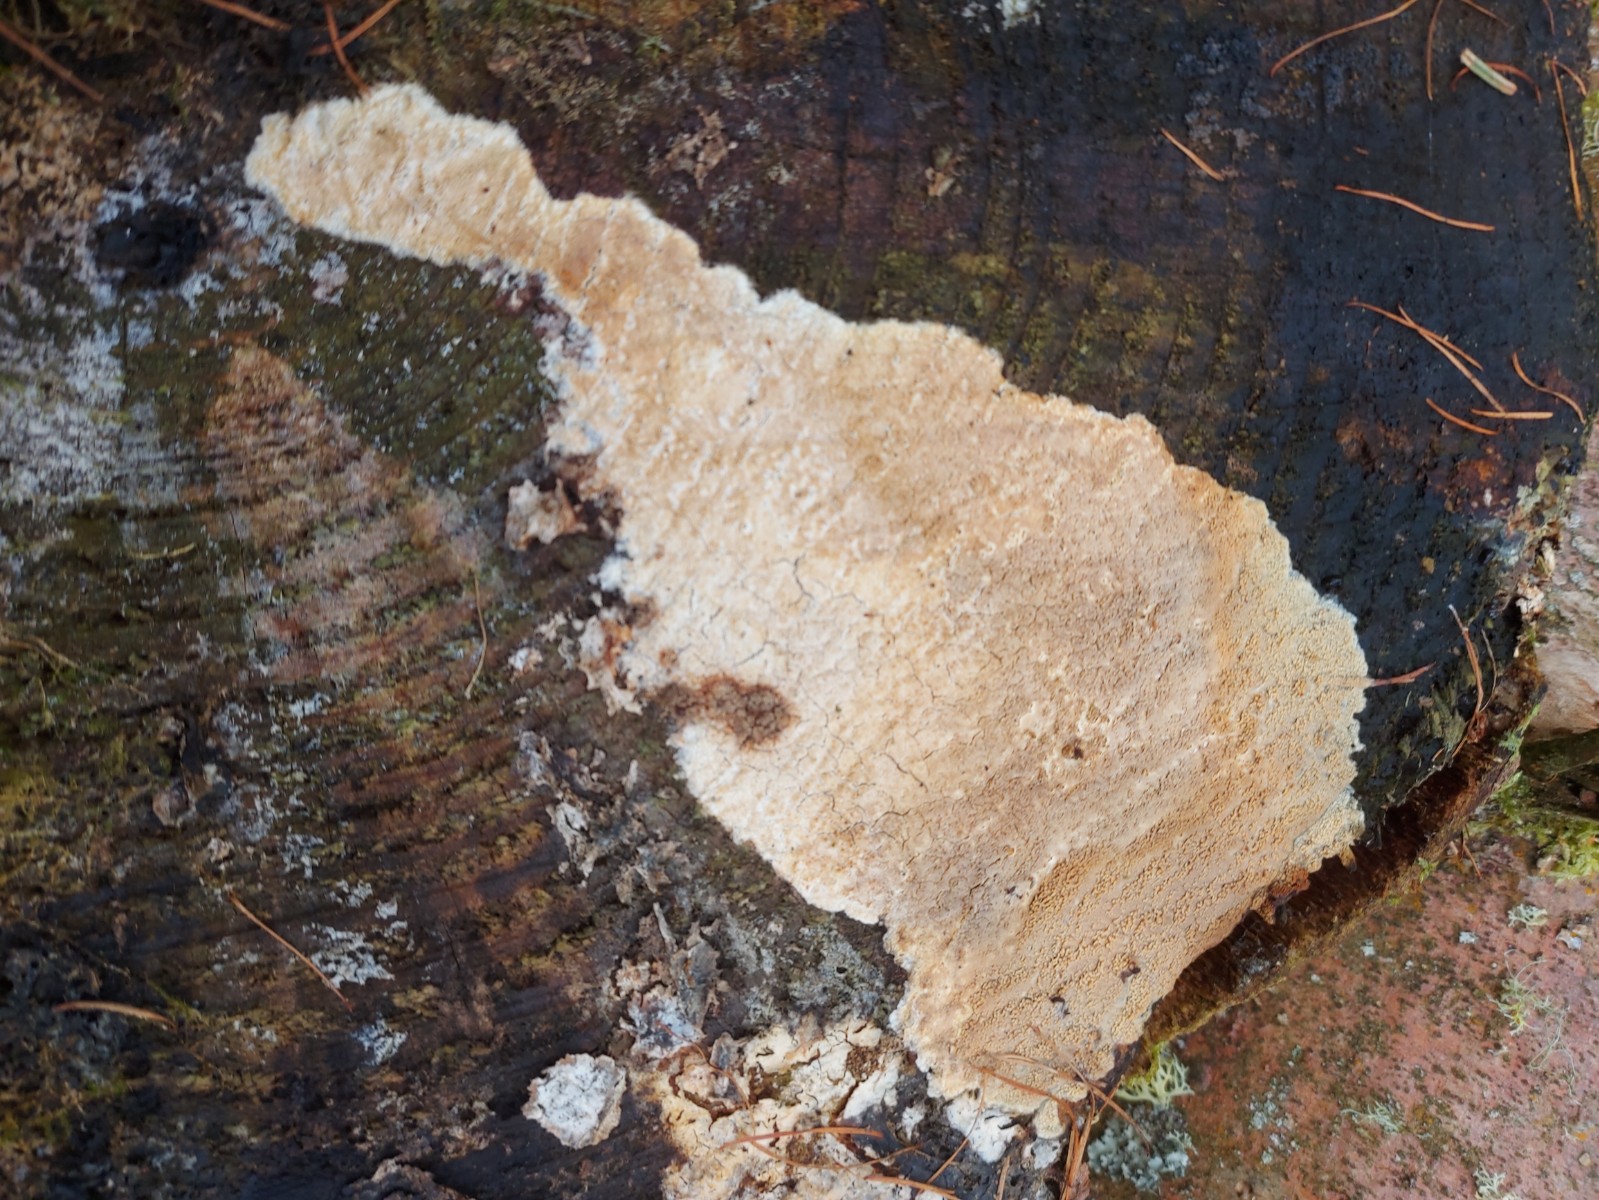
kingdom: Fungi
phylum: Basidiomycota
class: Agaricomycetes
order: Corticiales
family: Corticiaceae
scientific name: Corticiaceae
